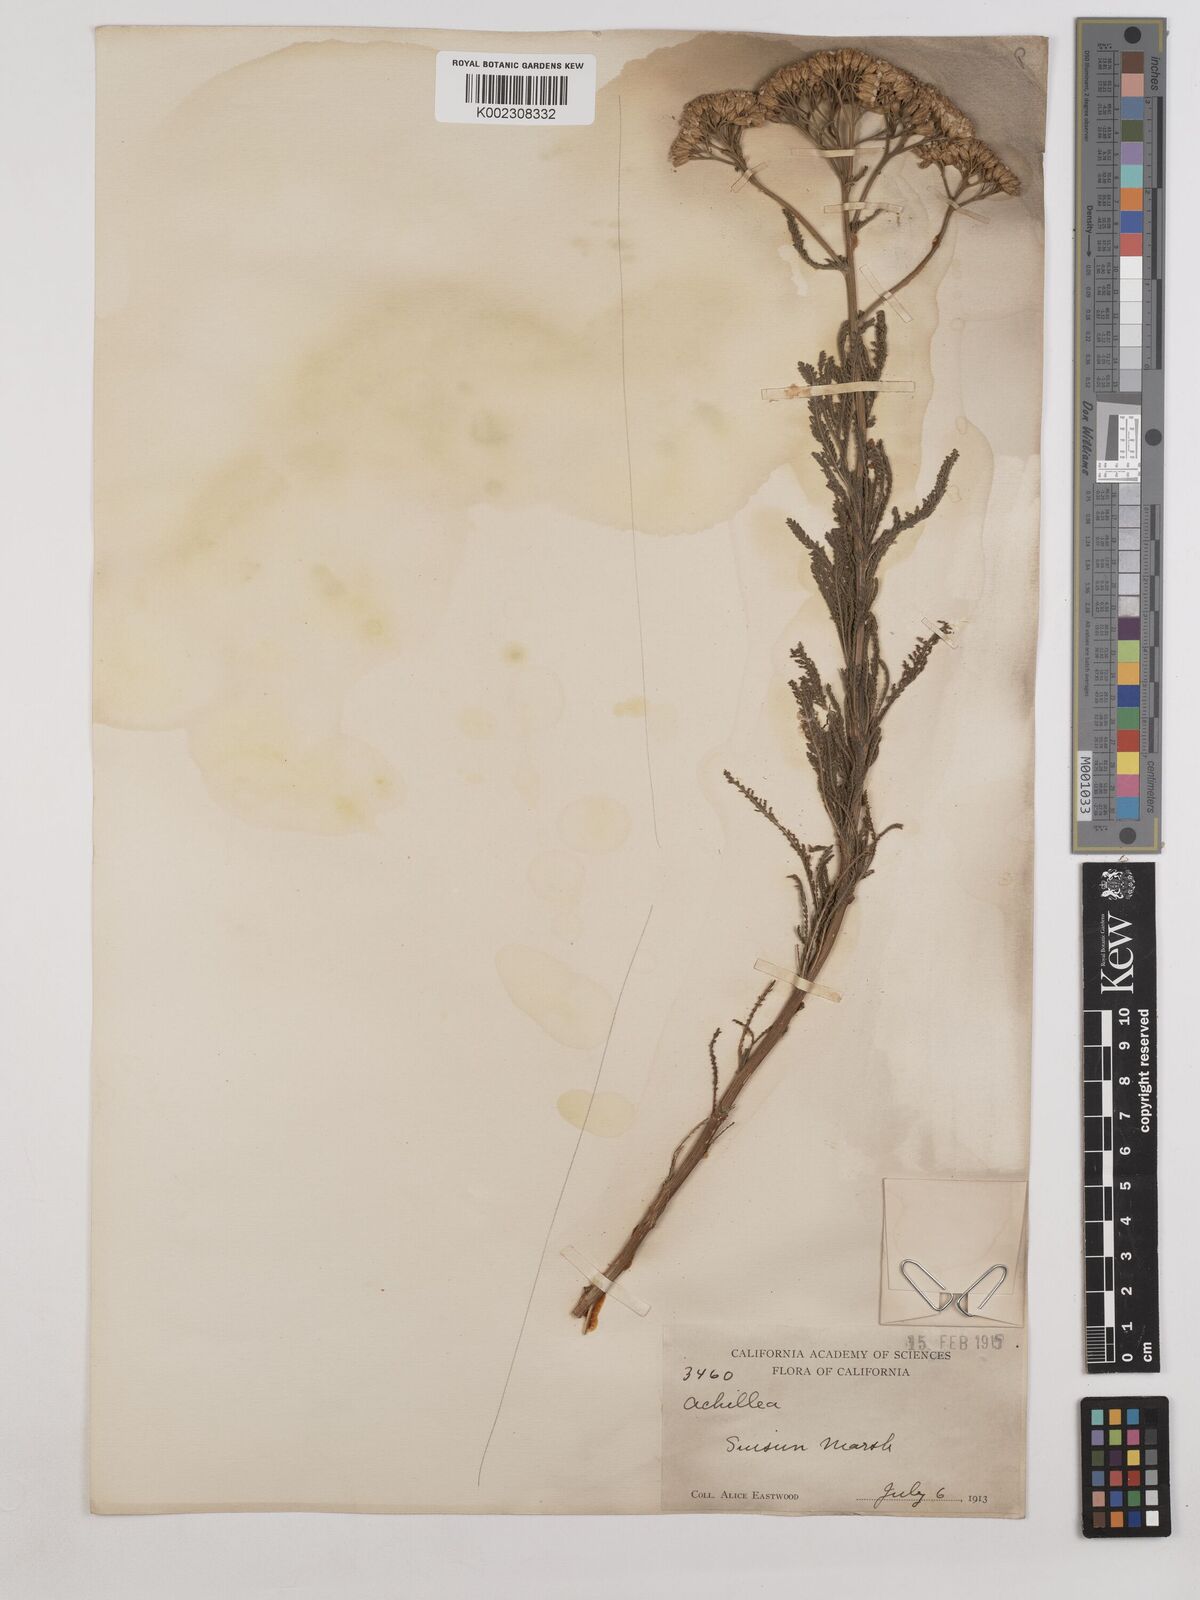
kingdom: Plantae
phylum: Tracheophyta
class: Magnoliopsida
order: Asterales
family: Asteraceae
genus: Achillea
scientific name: Achillea millefolium
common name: Yarrow
